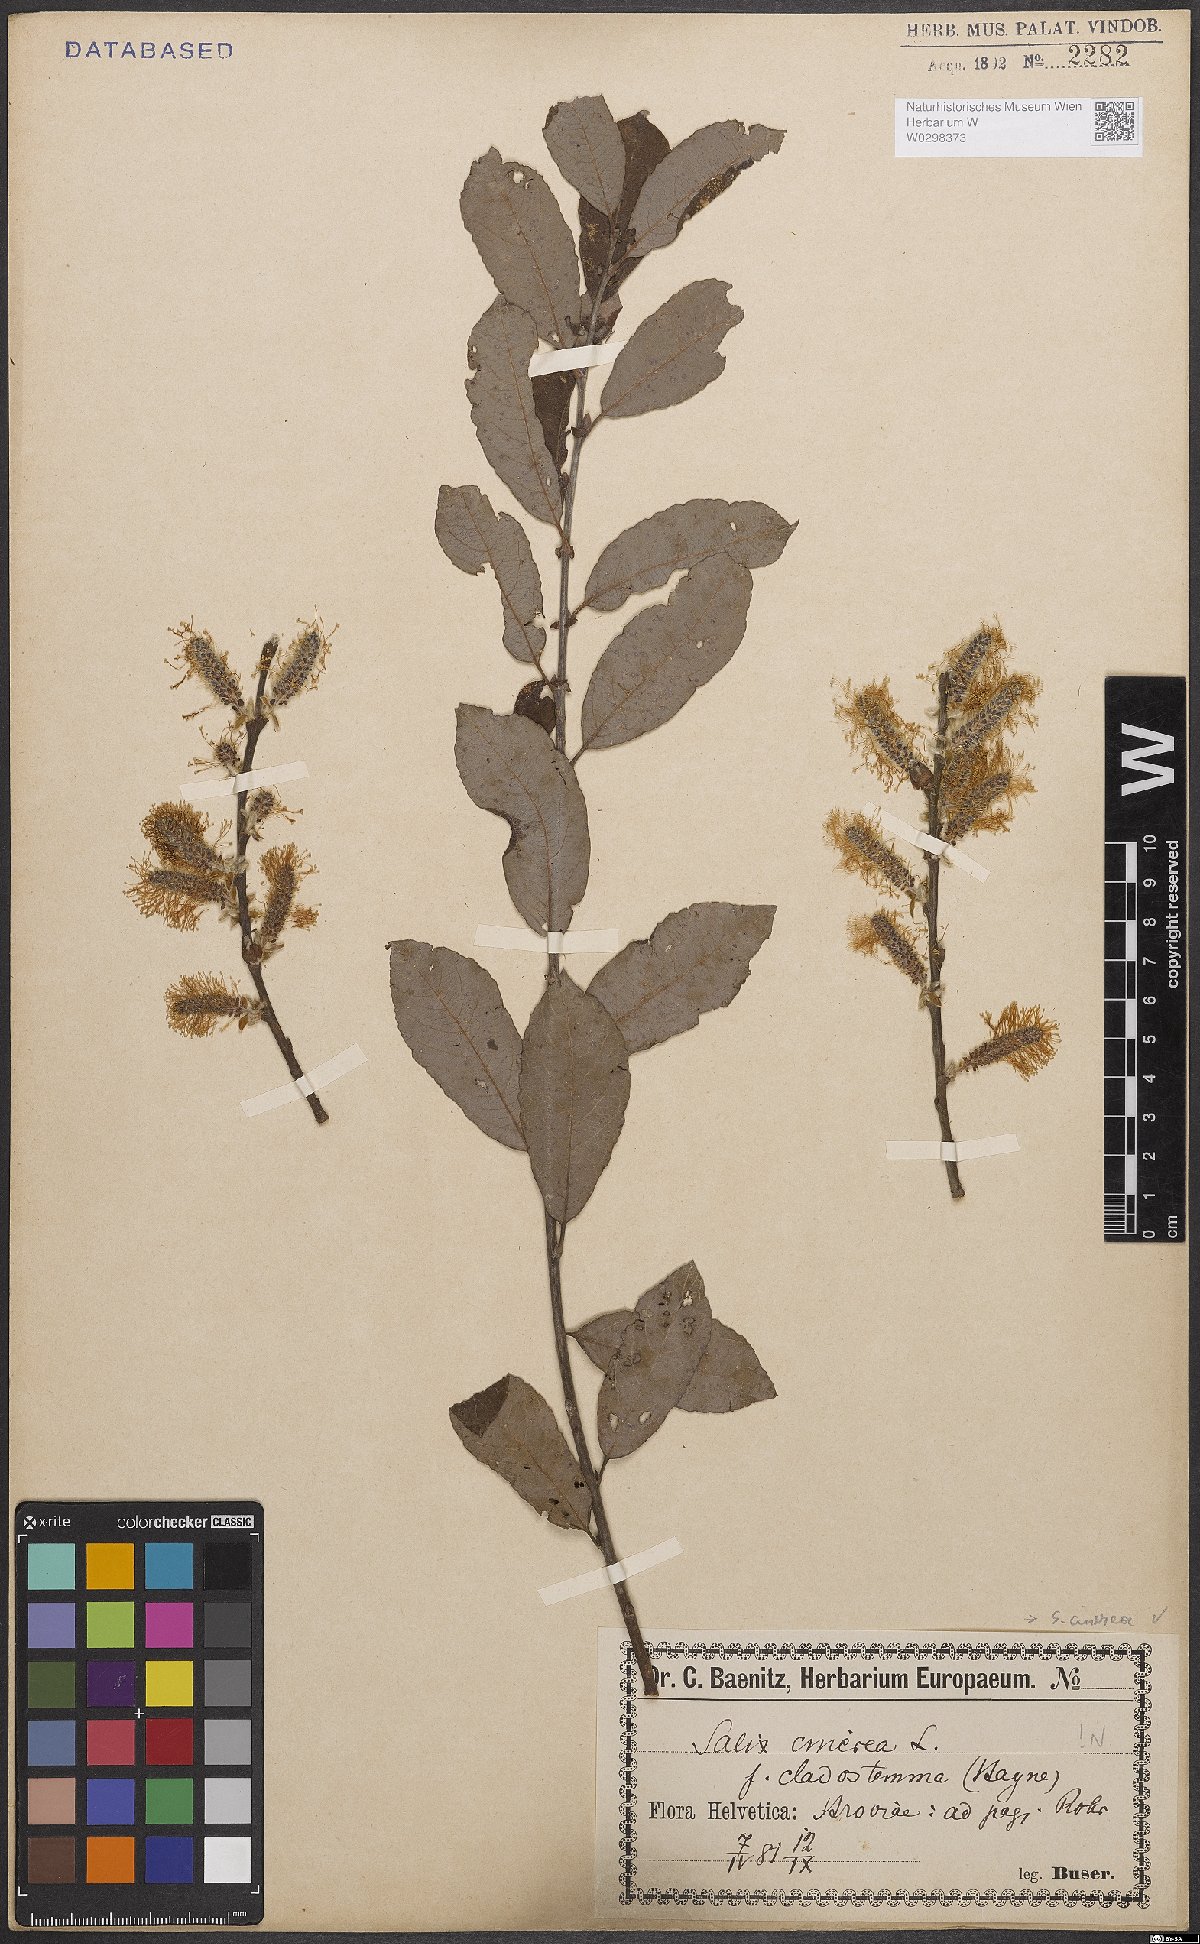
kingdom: Plantae
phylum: Tracheophyta
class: Magnoliopsida
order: Malpighiales
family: Salicaceae
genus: Salix
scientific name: Salix cinerea
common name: Common sallow
